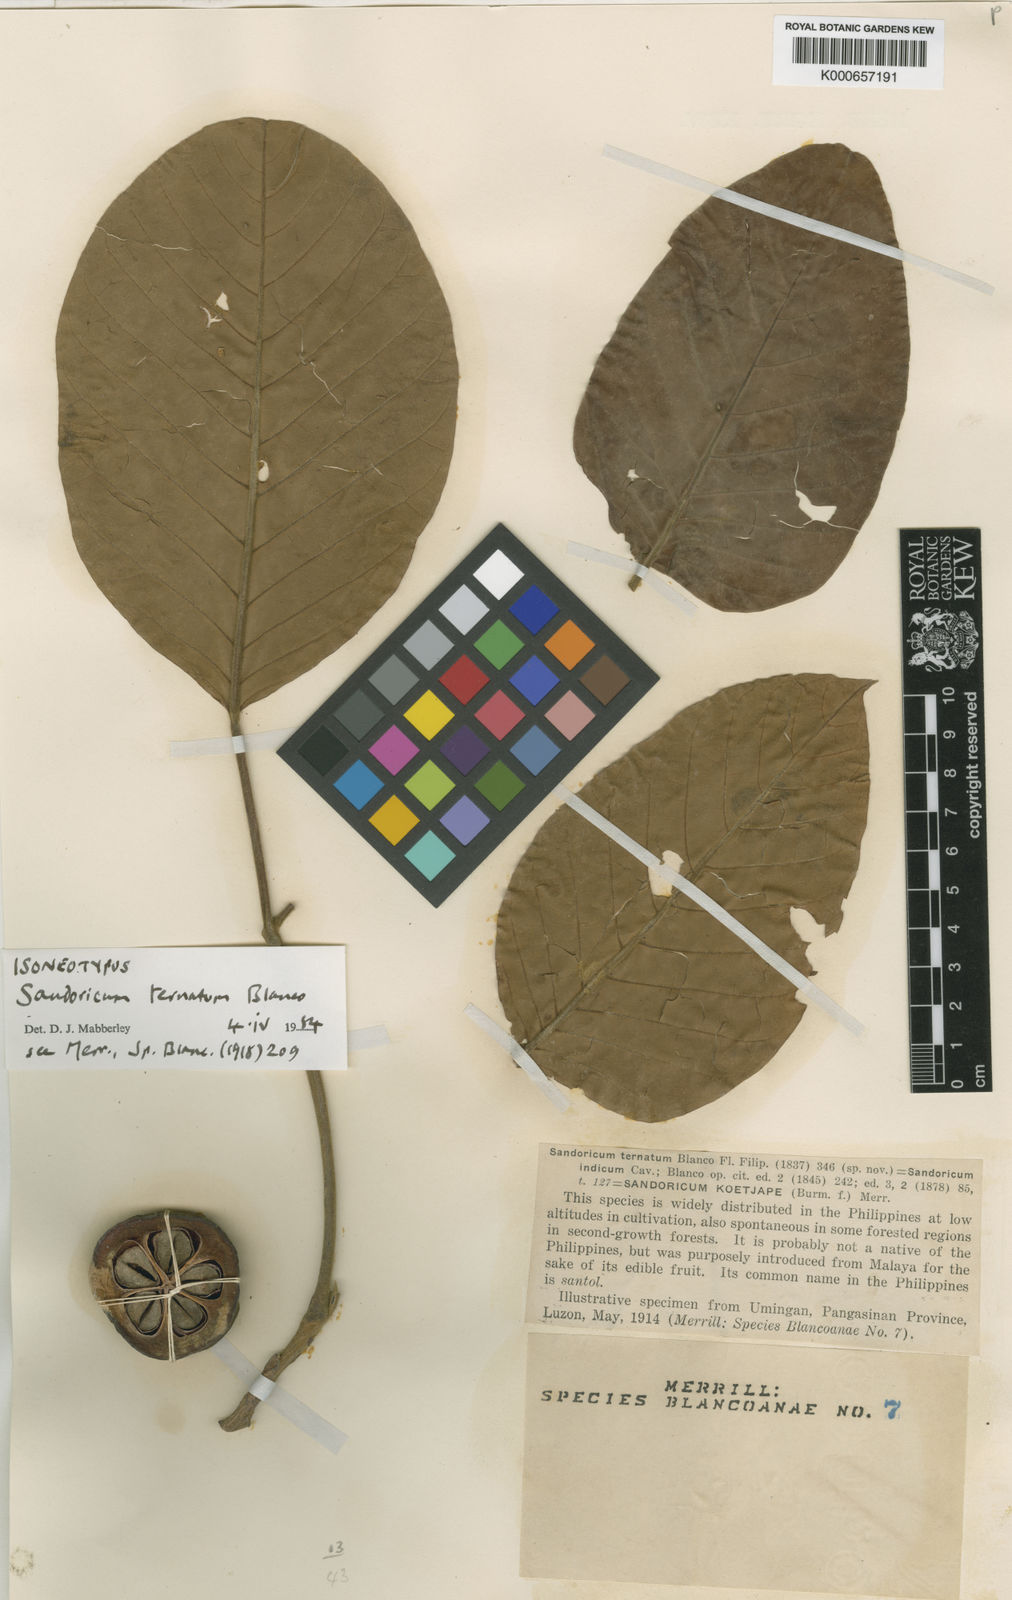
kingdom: Plantae
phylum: Tracheophyta
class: Magnoliopsida
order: Sapindales
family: Meliaceae
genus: Sandoricum
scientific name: Sandoricum koetjape
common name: Santol
